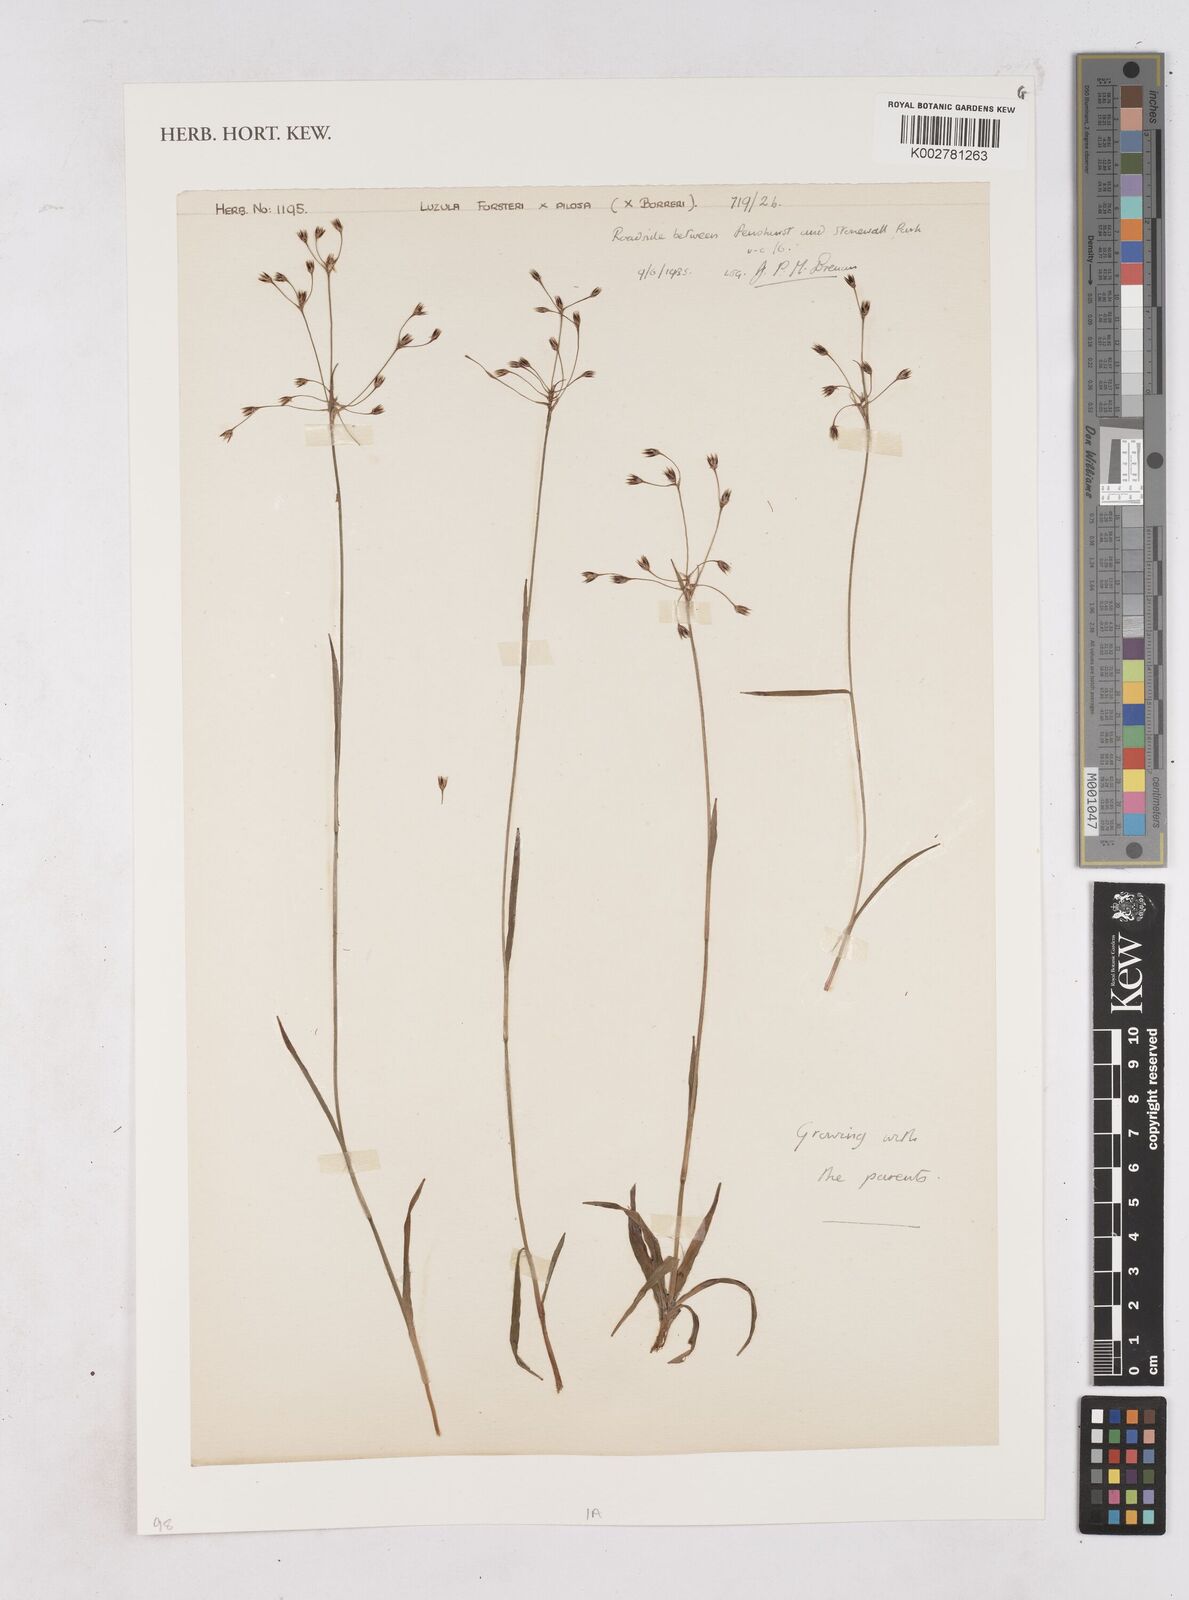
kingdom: Plantae
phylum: Tracheophyta
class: Liliopsida
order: Poales
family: Juncaceae
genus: Luzula
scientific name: Luzula borreri
